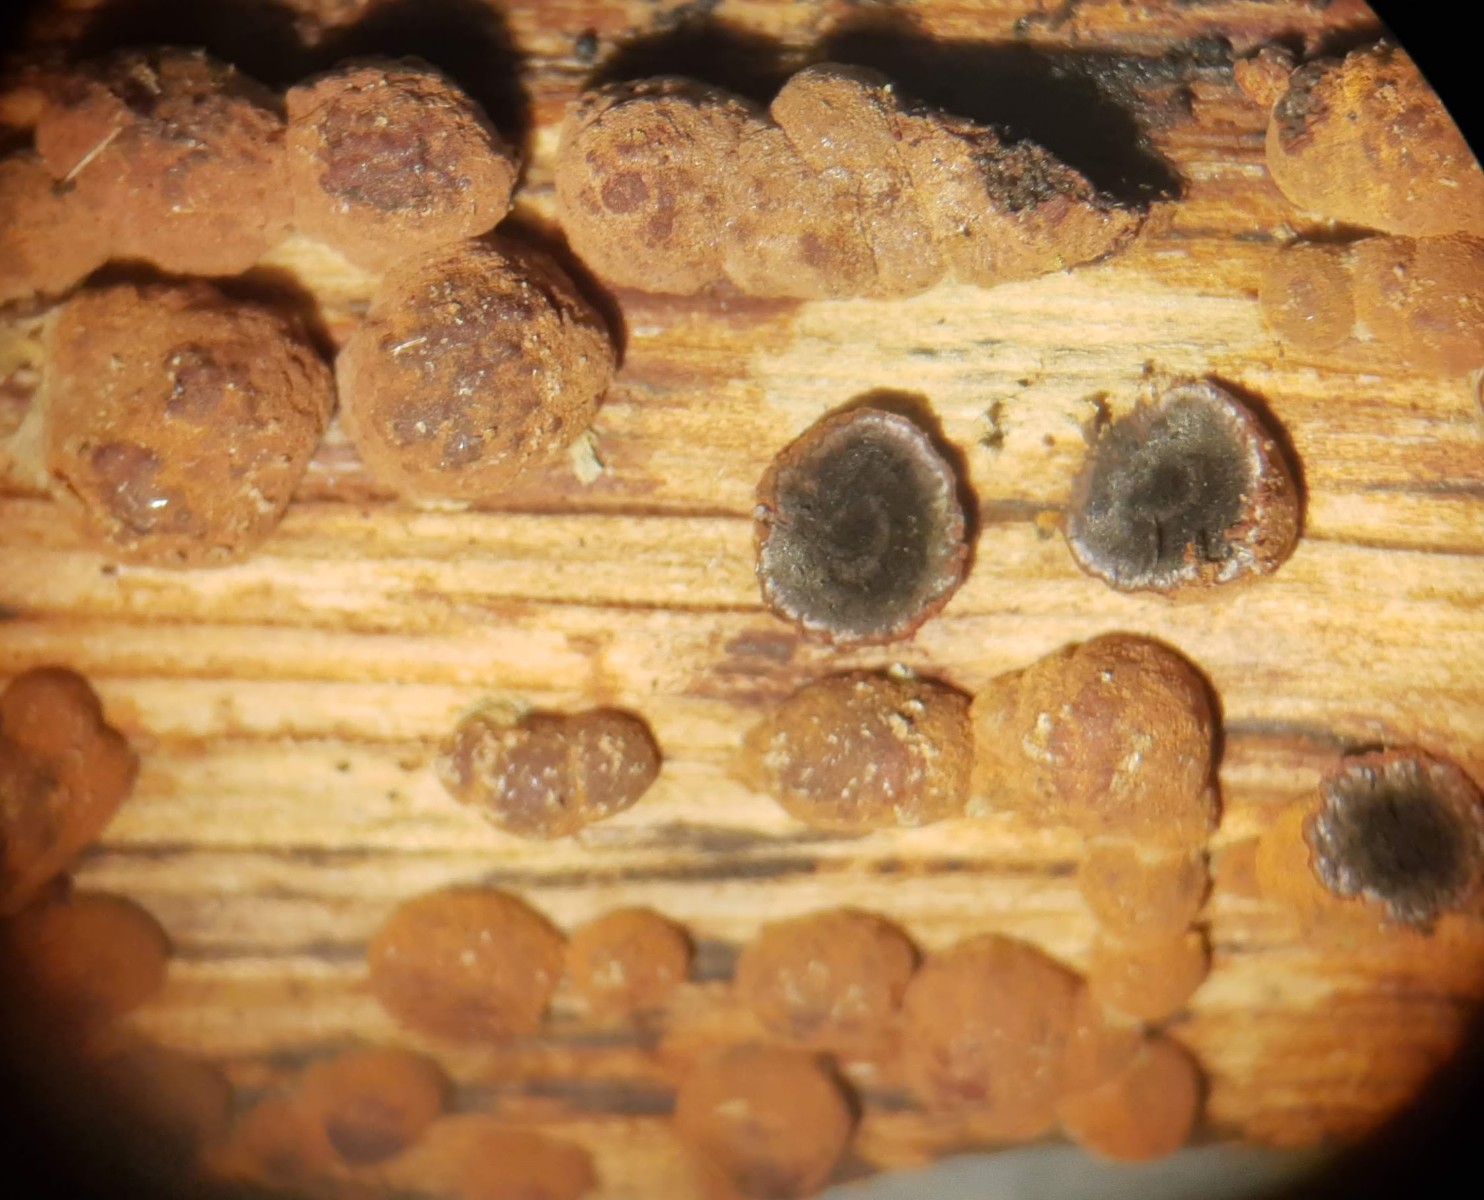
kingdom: Fungi
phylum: Ascomycota
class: Sordariomycetes
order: Xylariales
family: Hypoxylaceae
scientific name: Hypoxylaceae
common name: kulbærfamilien
